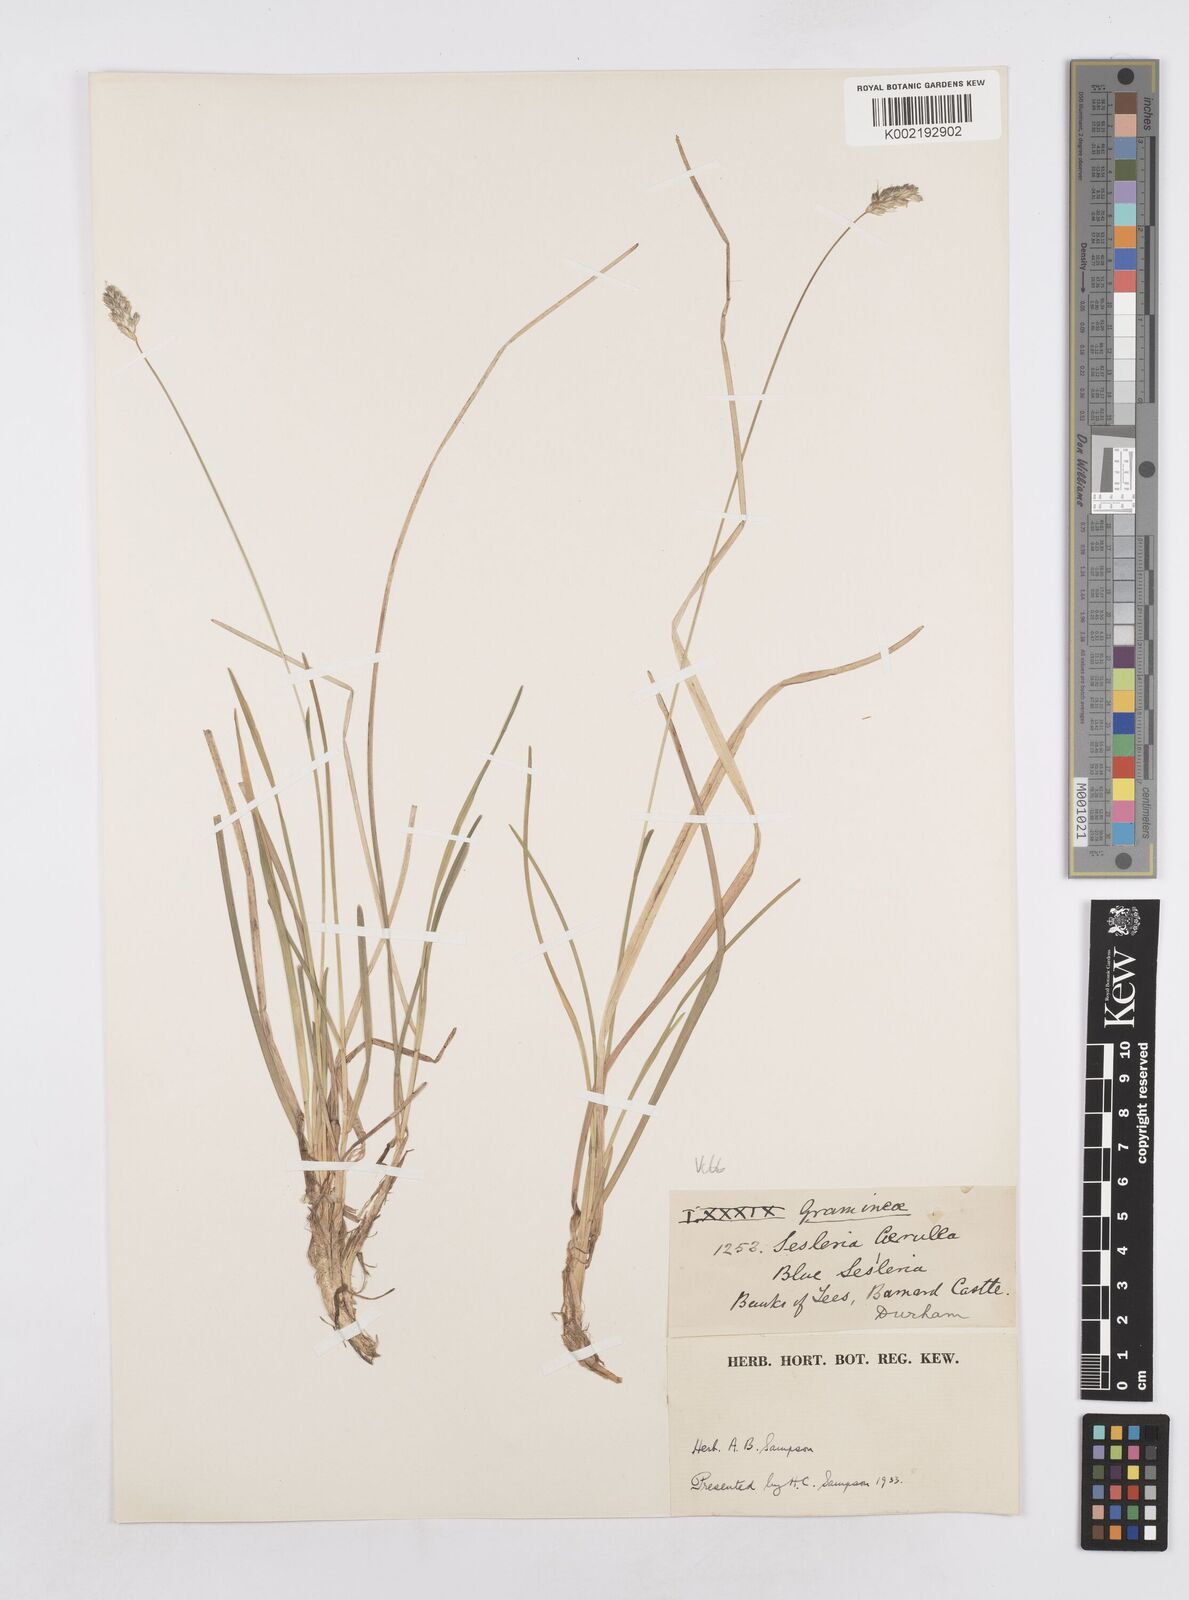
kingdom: Plantae
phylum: Tracheophyta
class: Liliopsida
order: Poales
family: Poaceae
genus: Sesleria
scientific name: Sesleria caerulea
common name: Blue moor-grass
